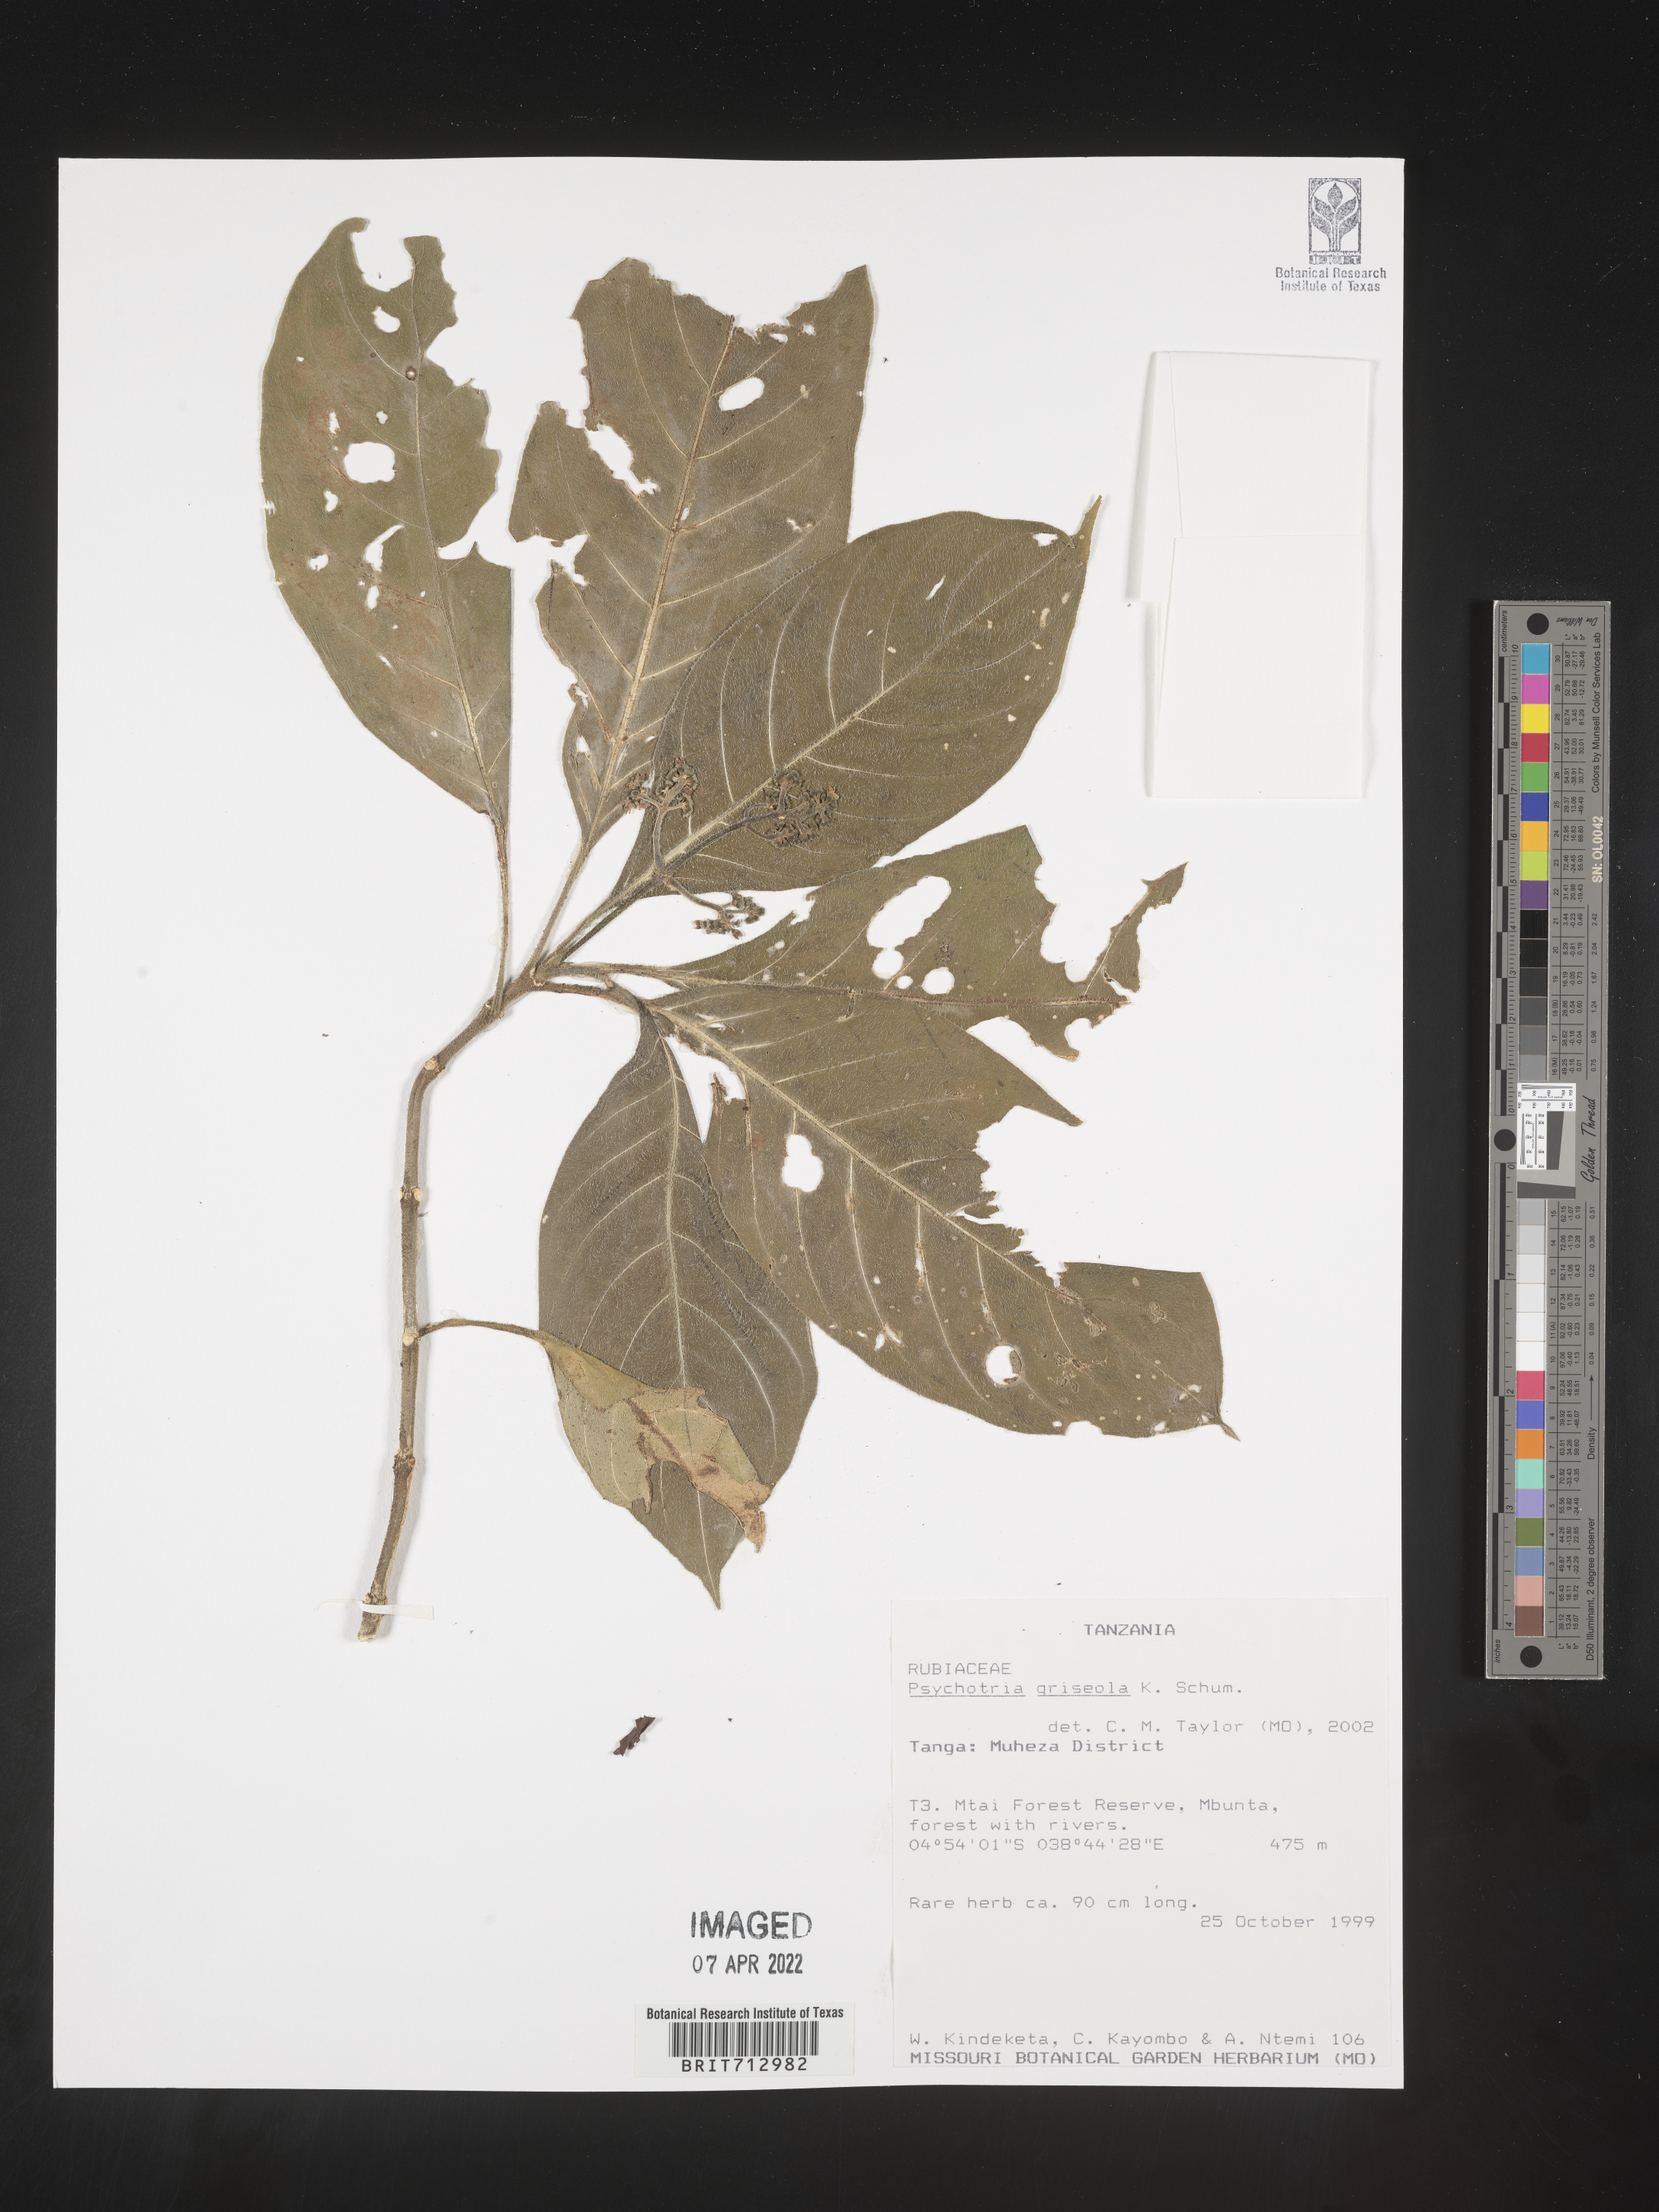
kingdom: Plantae
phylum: Tracheophyta
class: Magnoliopsida
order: Gentianales
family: Rubiaceae
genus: Psychotria
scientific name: Psychotria
